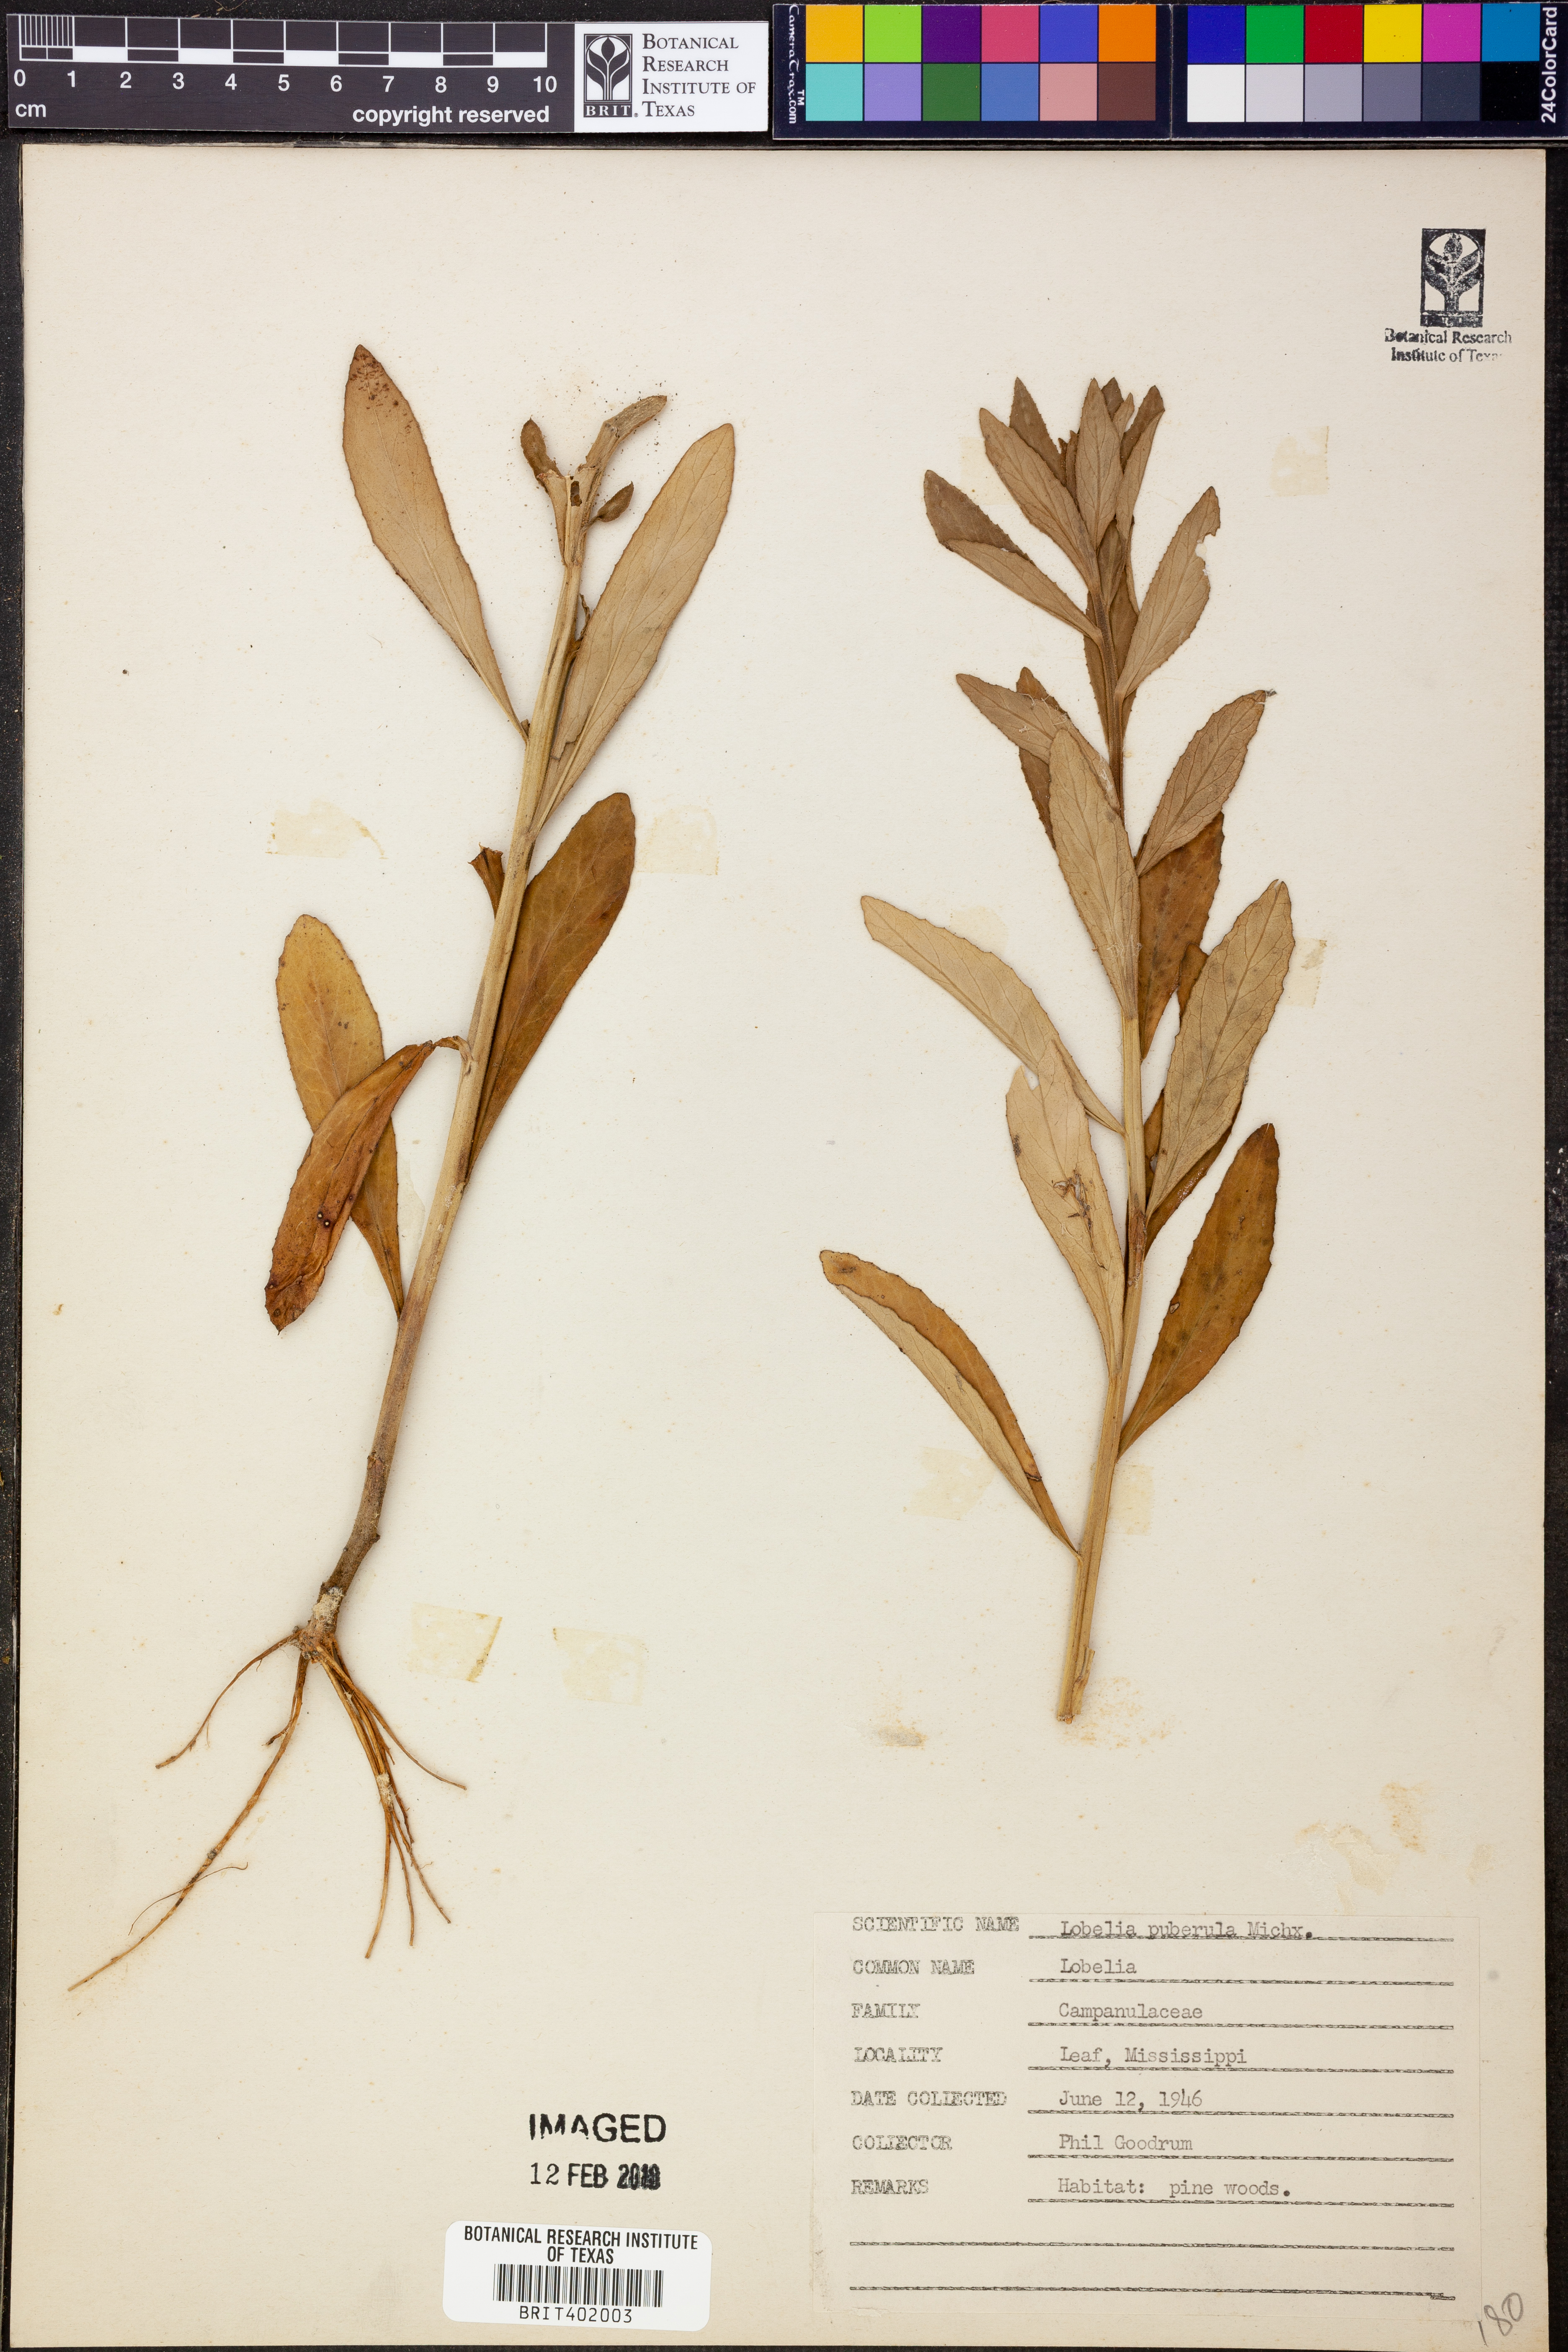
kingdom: Plantae
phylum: Tracheophyta
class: Magnoliopsida
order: Asterales
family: Campanulaceae
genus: Lobelia
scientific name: Lobelia puberula
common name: Purple dewdrop
